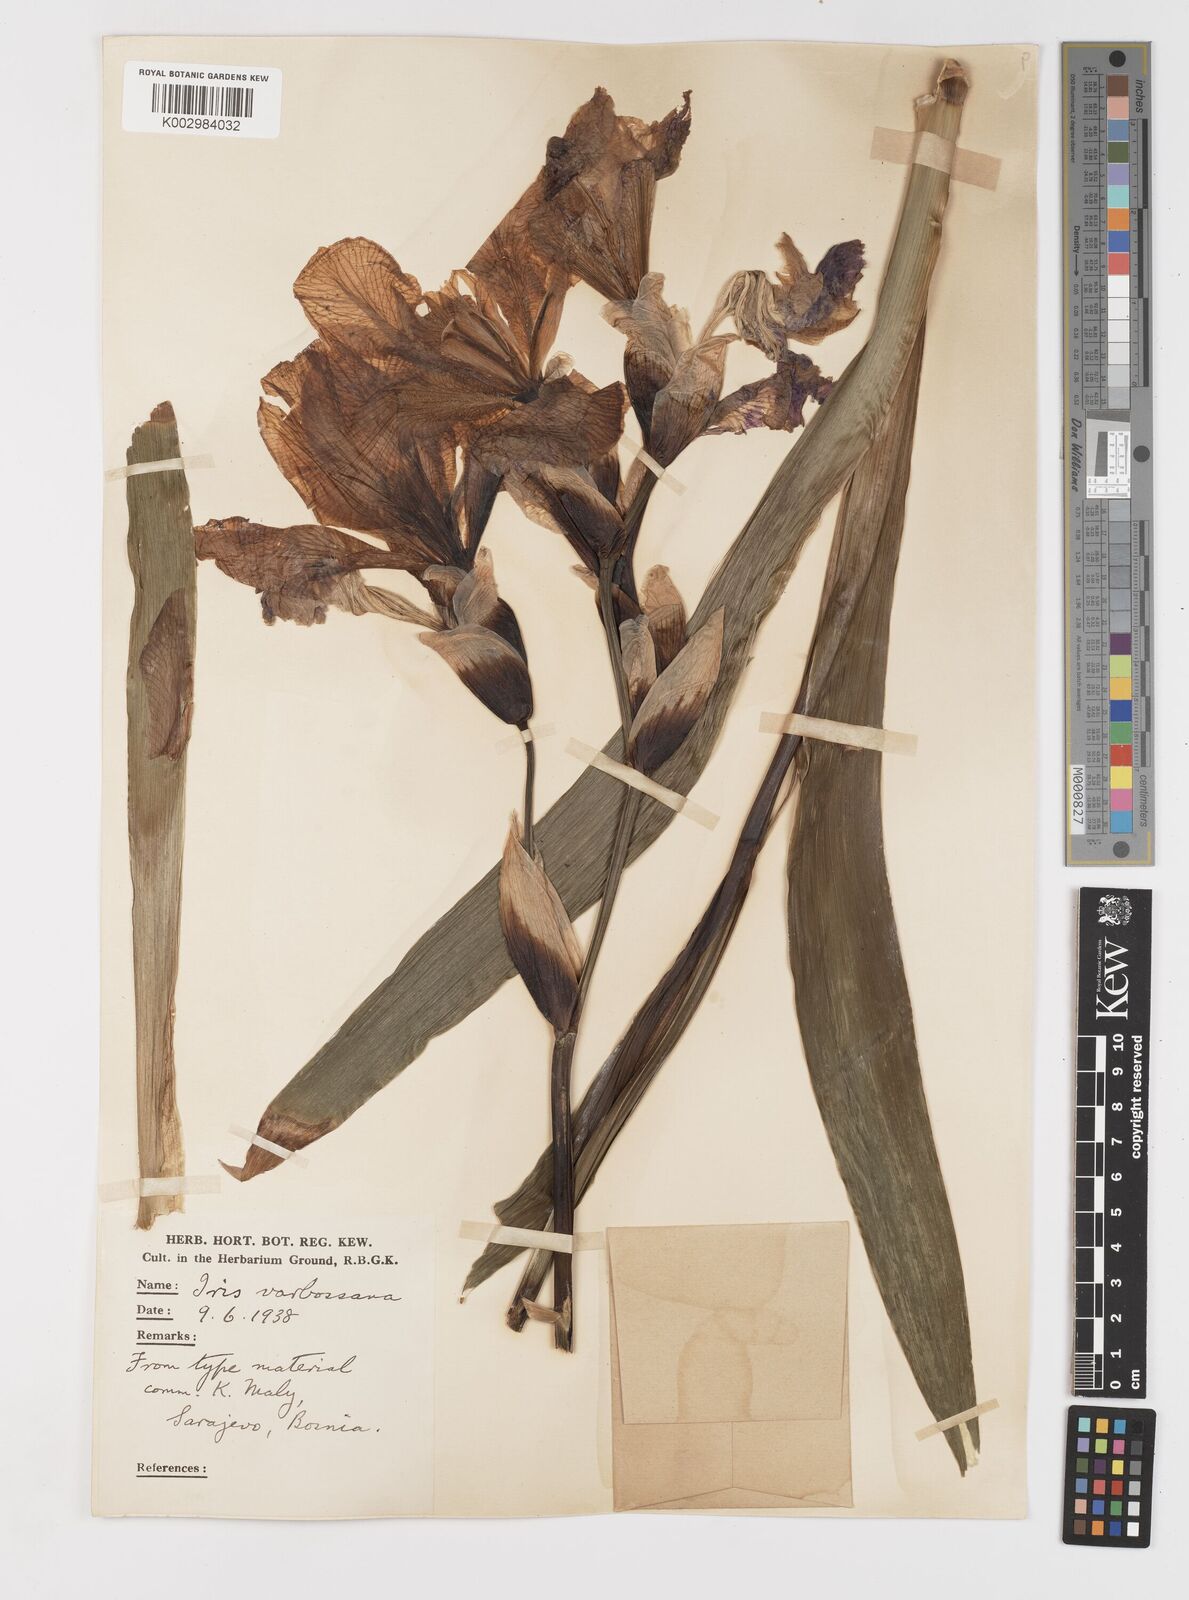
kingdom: Plantae
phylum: Tracheophyta
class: Liliopsida
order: Asparagales
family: Iridaceae
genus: Iris
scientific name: Iris germanica
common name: German iris
